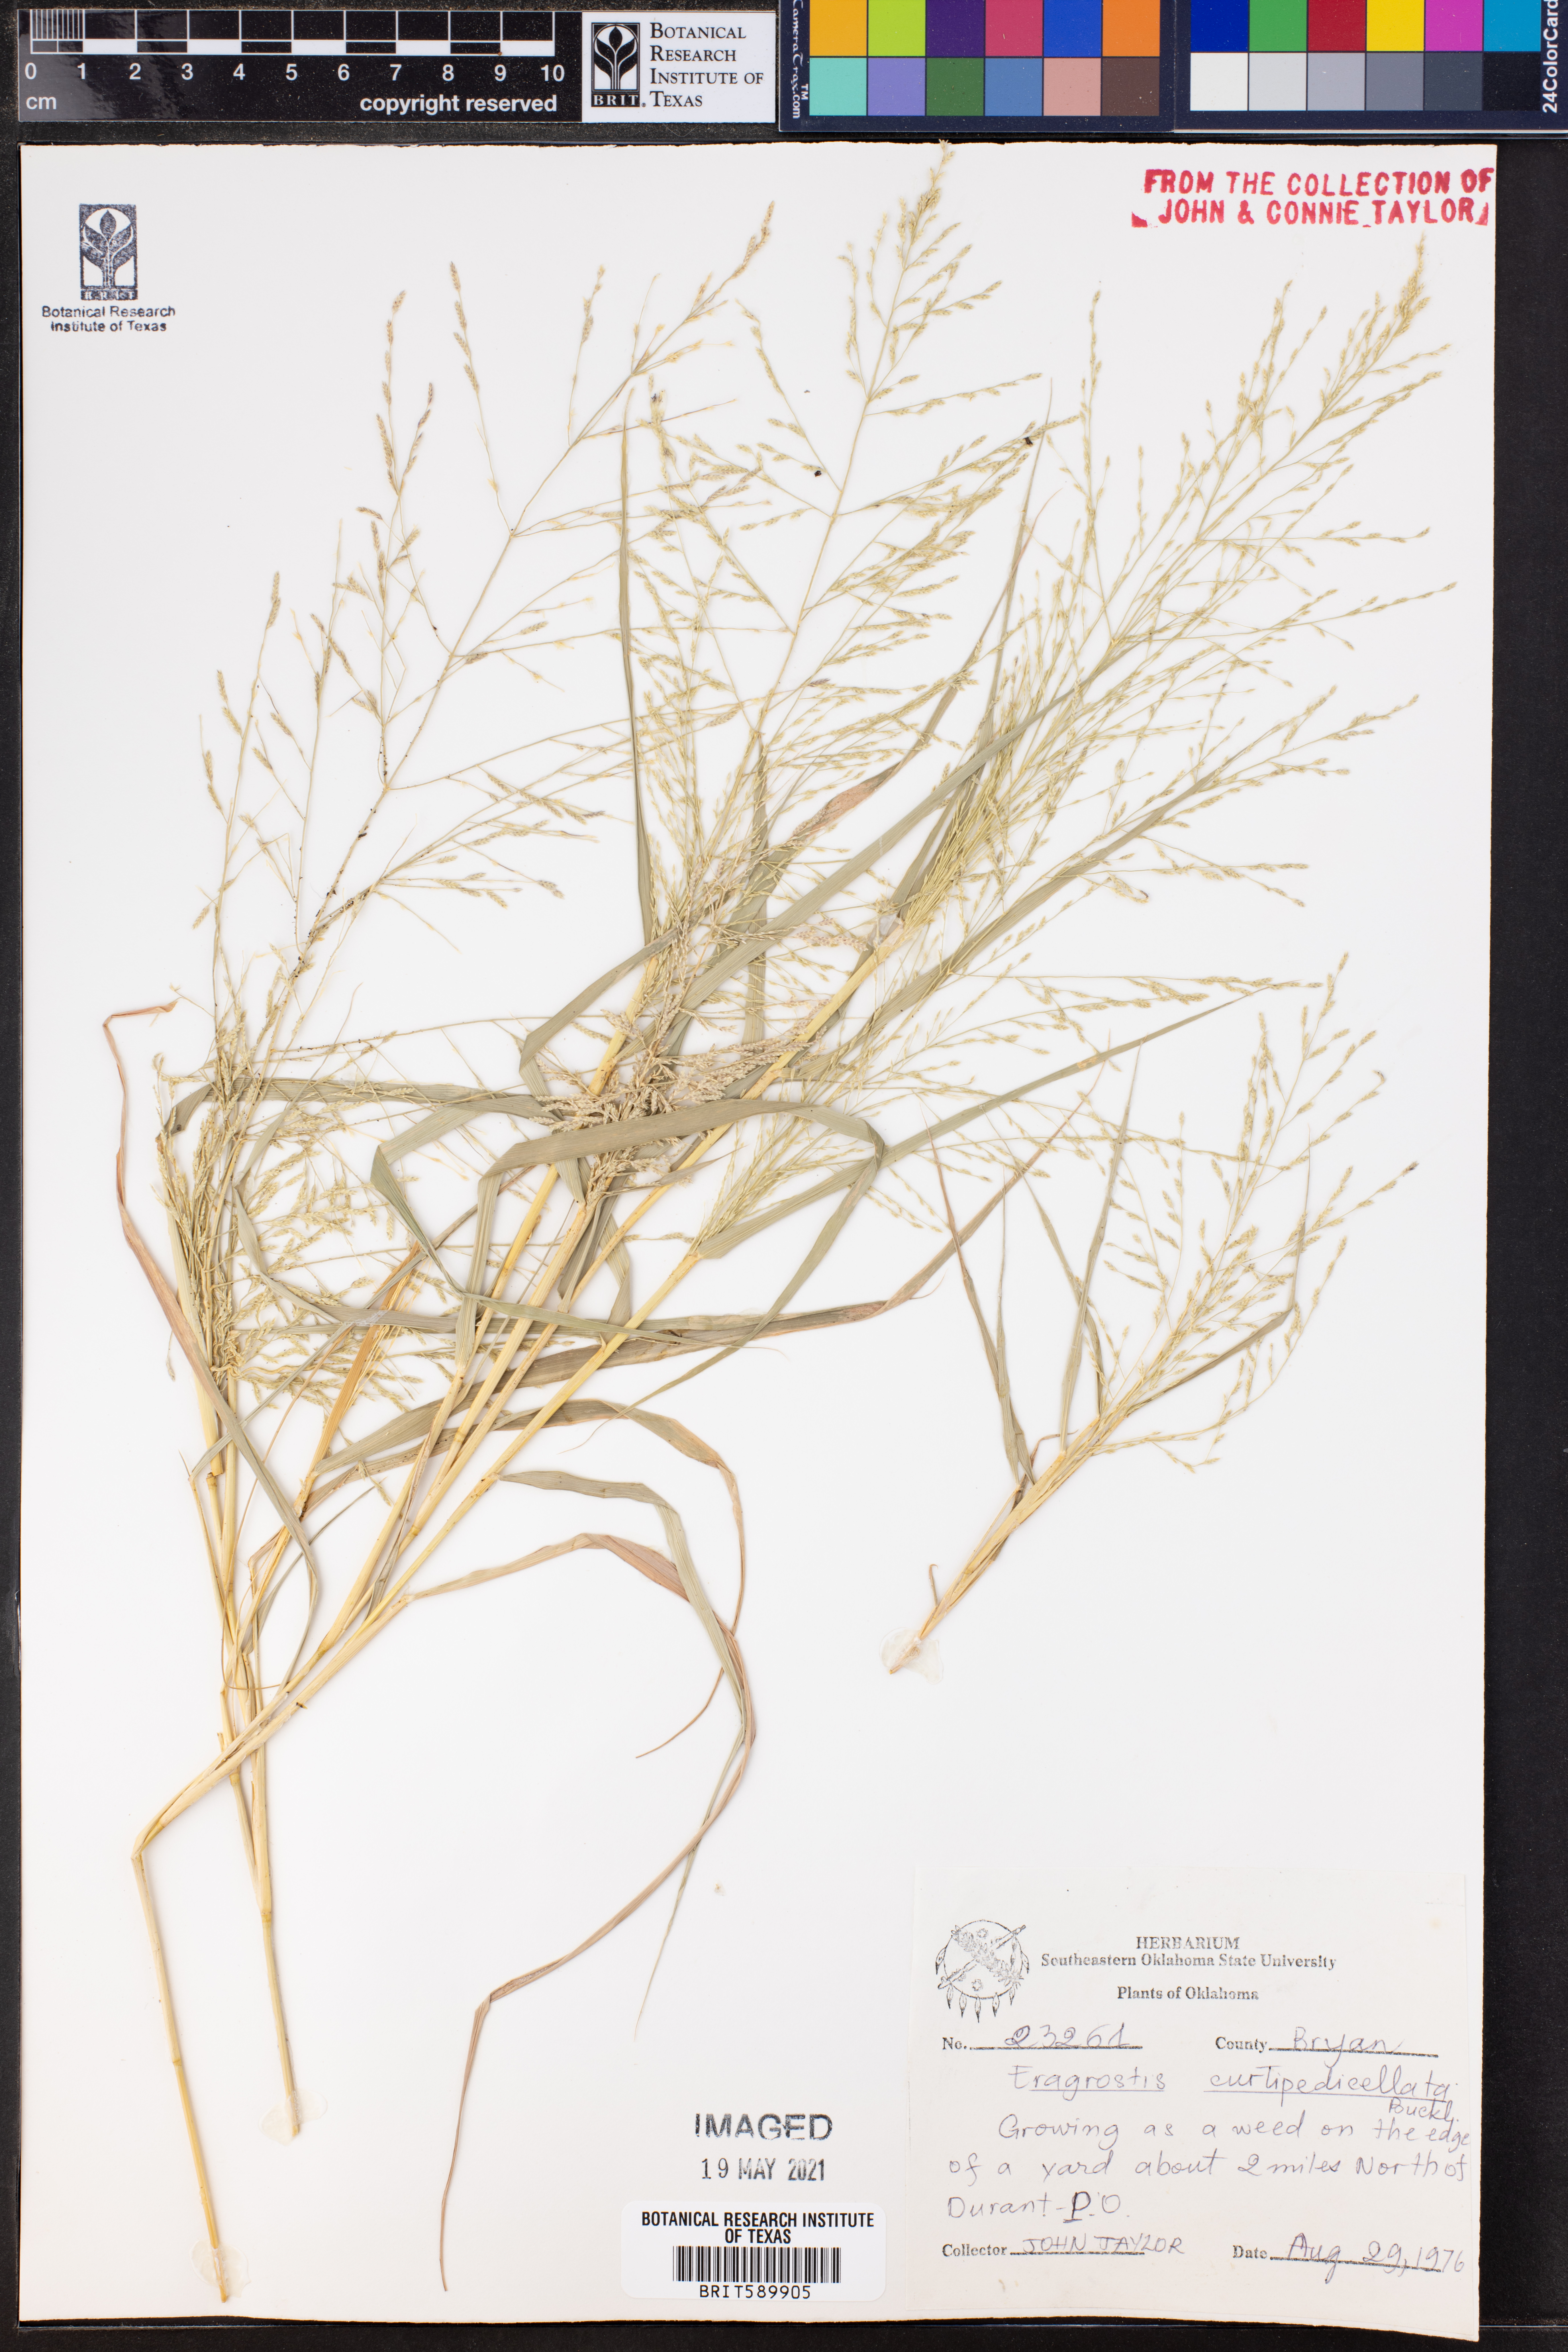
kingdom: Plantae
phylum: Tracheophyta
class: Liliopsida
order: Poales
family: Poaceae
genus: Eragrostis
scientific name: Eragrostis curtipedicellata
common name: Gummy love grass
